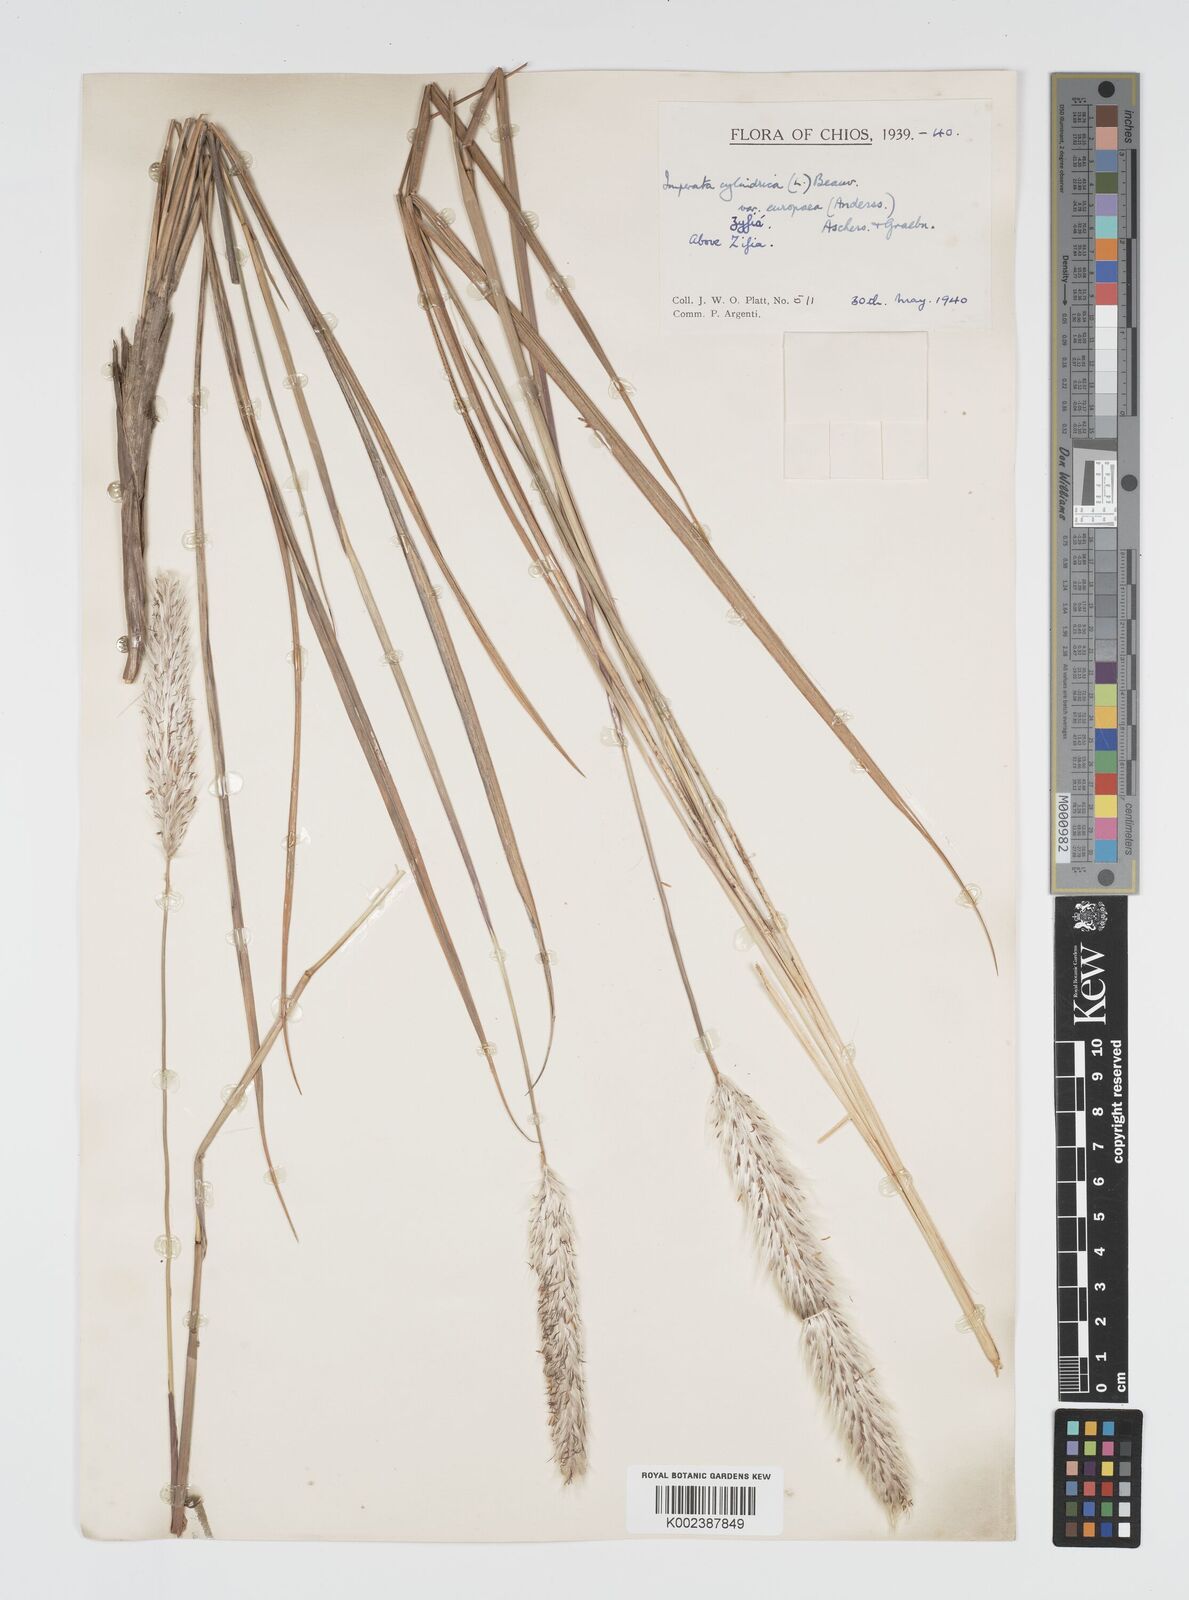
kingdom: Plantae
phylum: Tracheophyta
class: Liliopsida
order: Poales
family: Poaceae
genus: Imperata
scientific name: Imperata cylindrica
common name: Cogongrass
